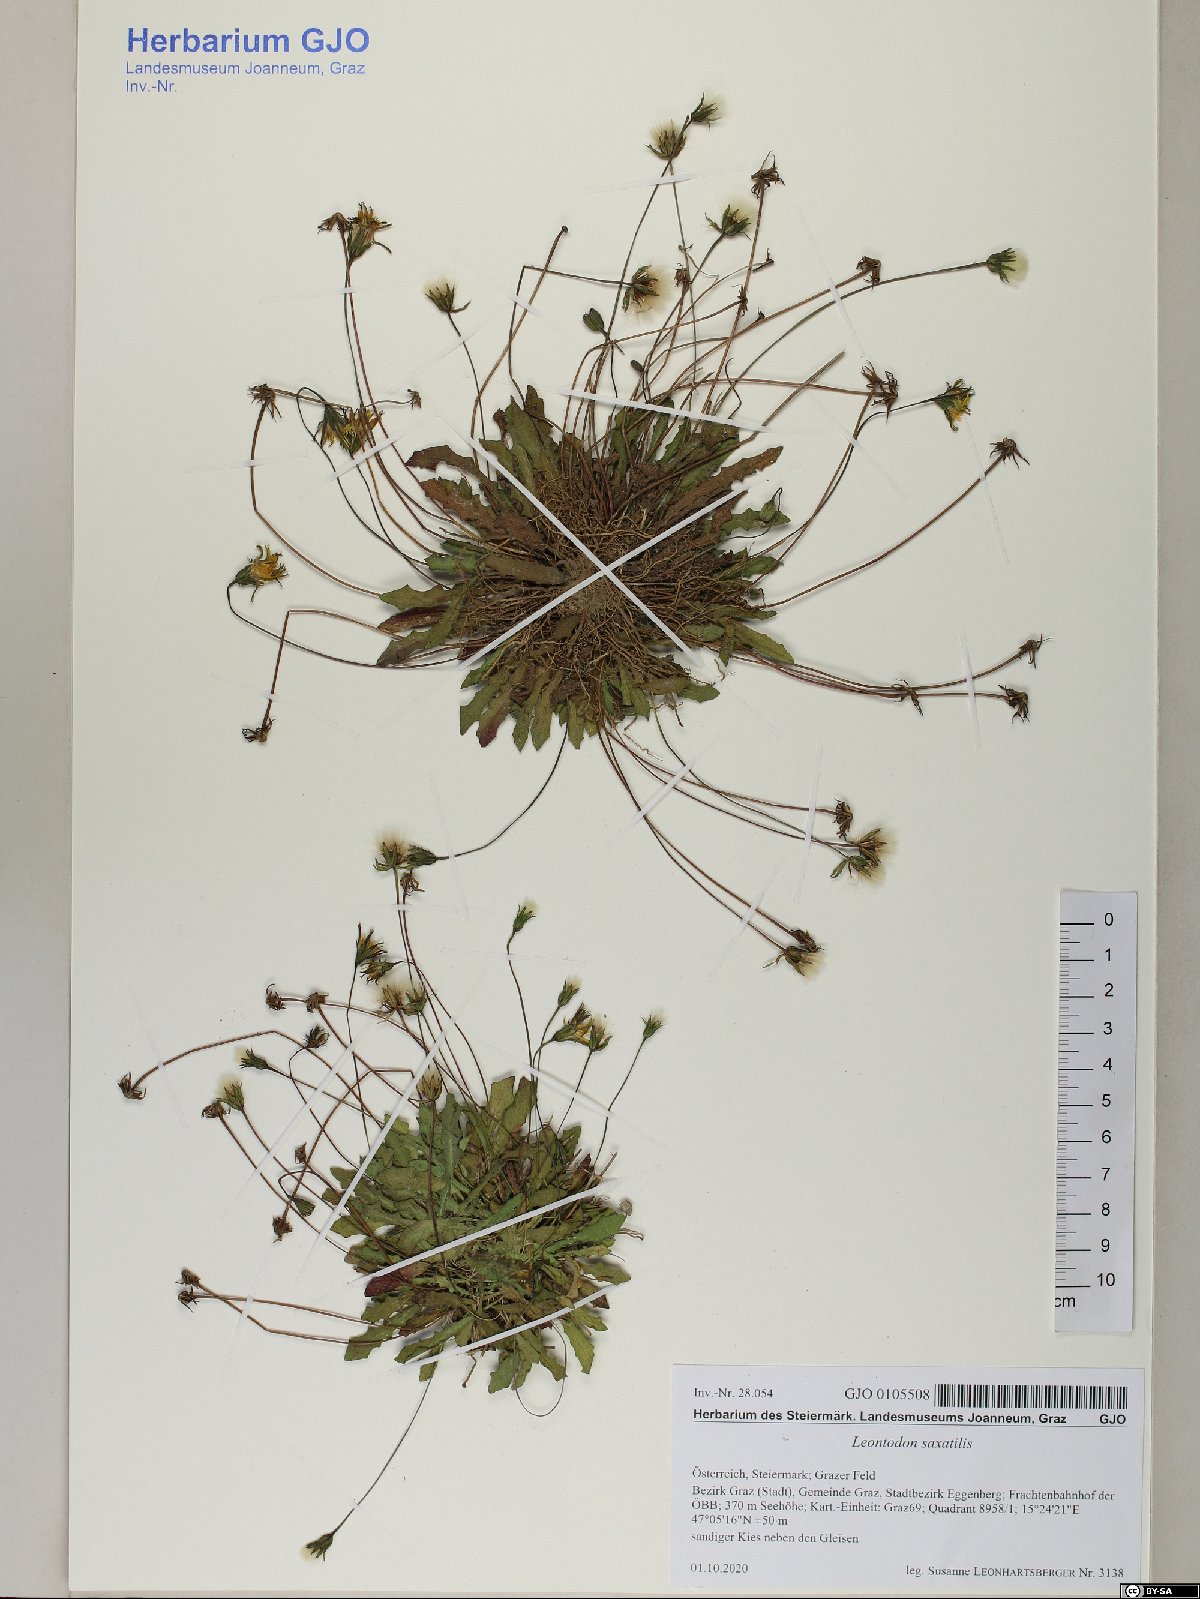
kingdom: Plantae
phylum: Tracheophyta
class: Magnoliopsida
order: Asterales
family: Asteraceae
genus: Thrincia
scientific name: Thrincia saxatilis
